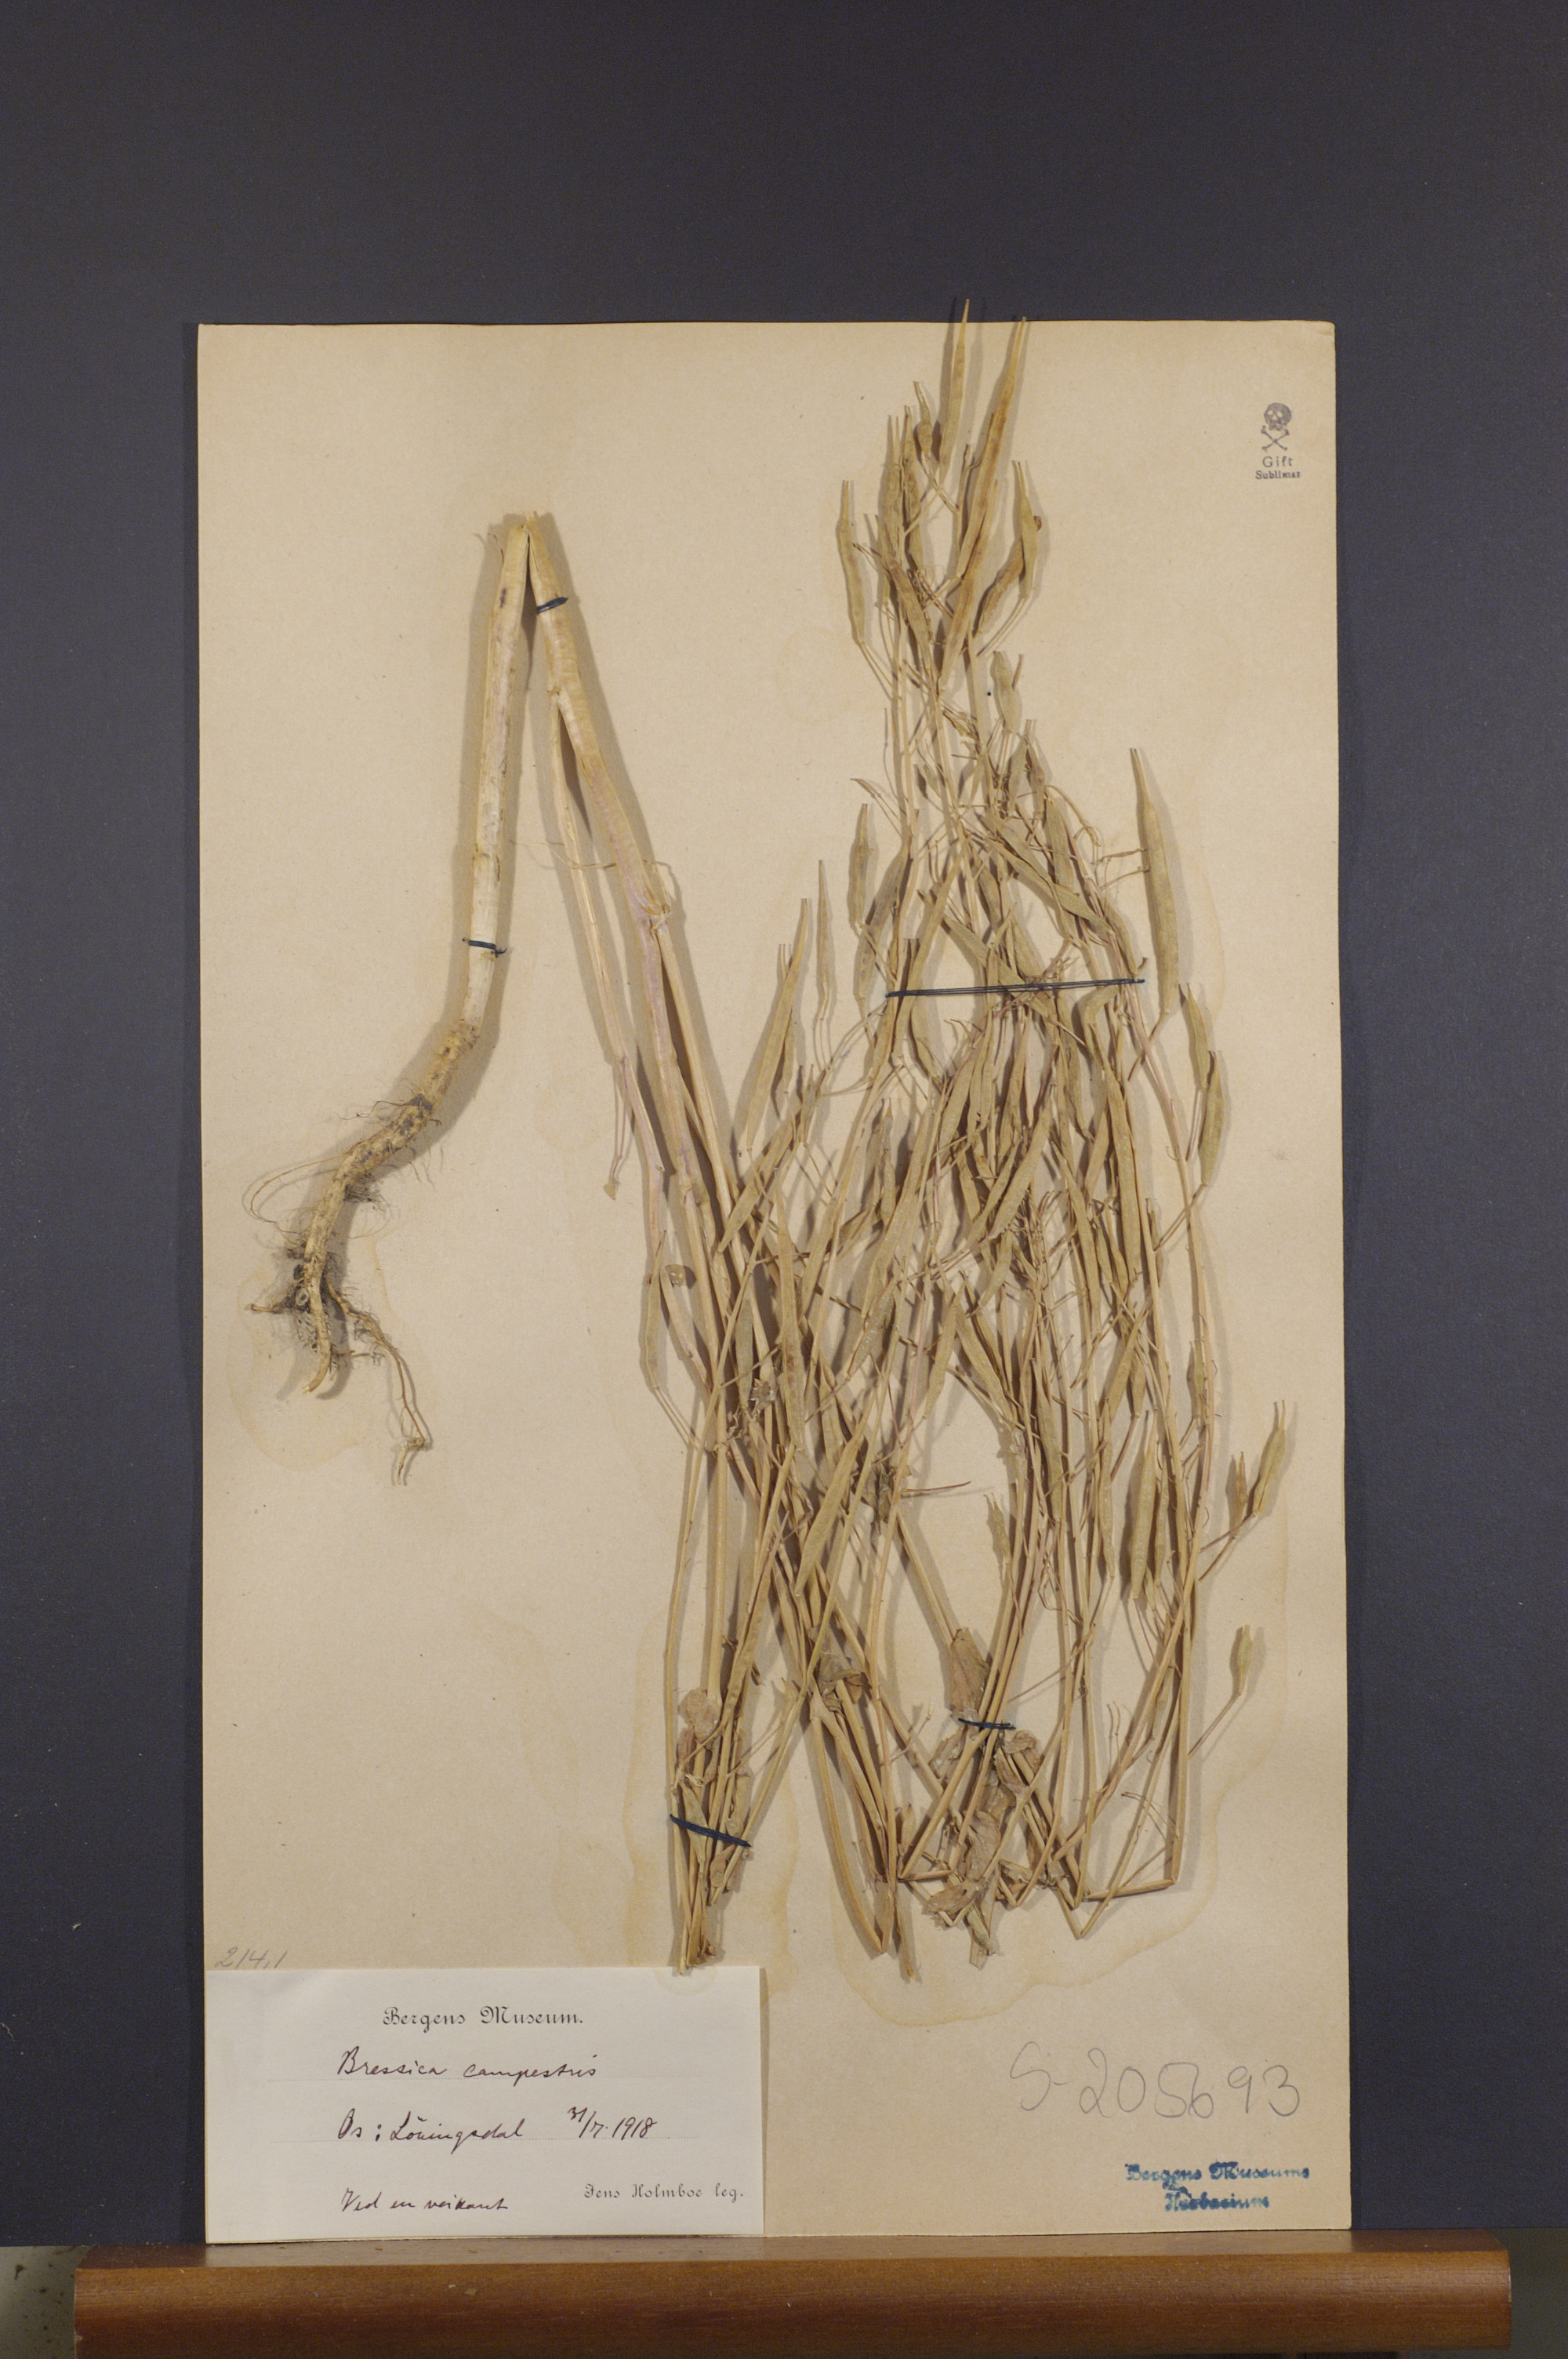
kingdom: Plantae
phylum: Tracheophyta
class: Magnoliopsida
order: Brassicales
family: Brassicaceae
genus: Brassica
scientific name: Brassica rapa
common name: Field mustard
